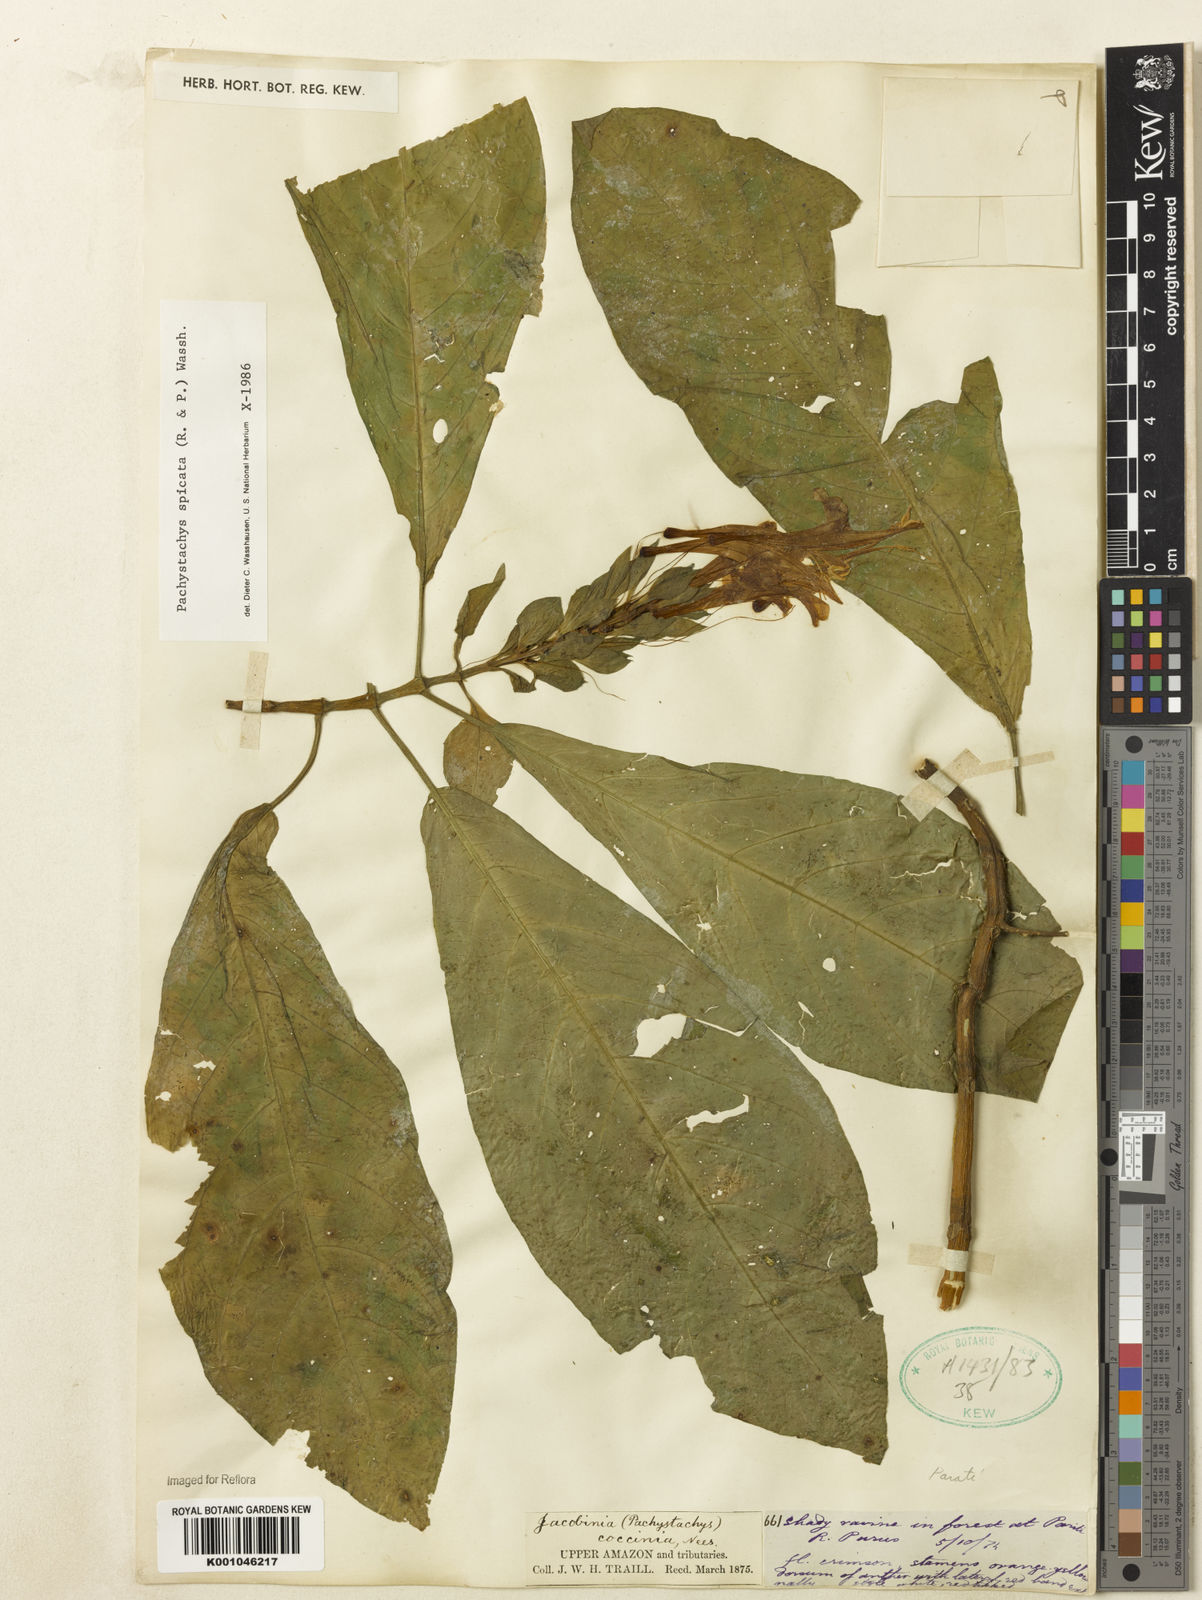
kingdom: Plantae
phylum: Tracheophyta
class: Magnoliopsida
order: Lamiales
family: Acanthaceae
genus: Pachystachys
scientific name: Pachystachys spicata
